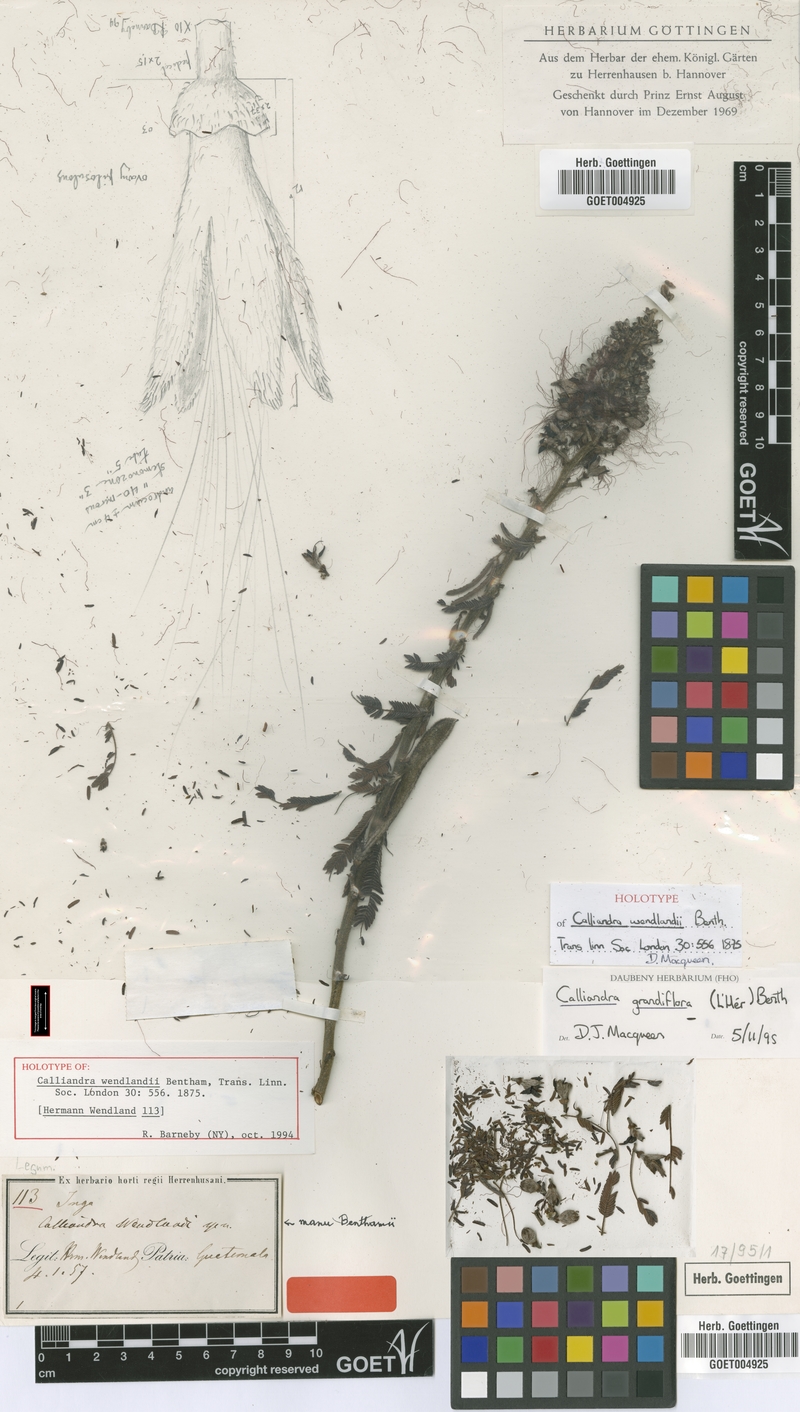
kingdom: Plantae
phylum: Tracheophyta
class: Magnoliopsida
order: Fabales
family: Fabaceae
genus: Calliandra
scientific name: Calliandra houstoniana
